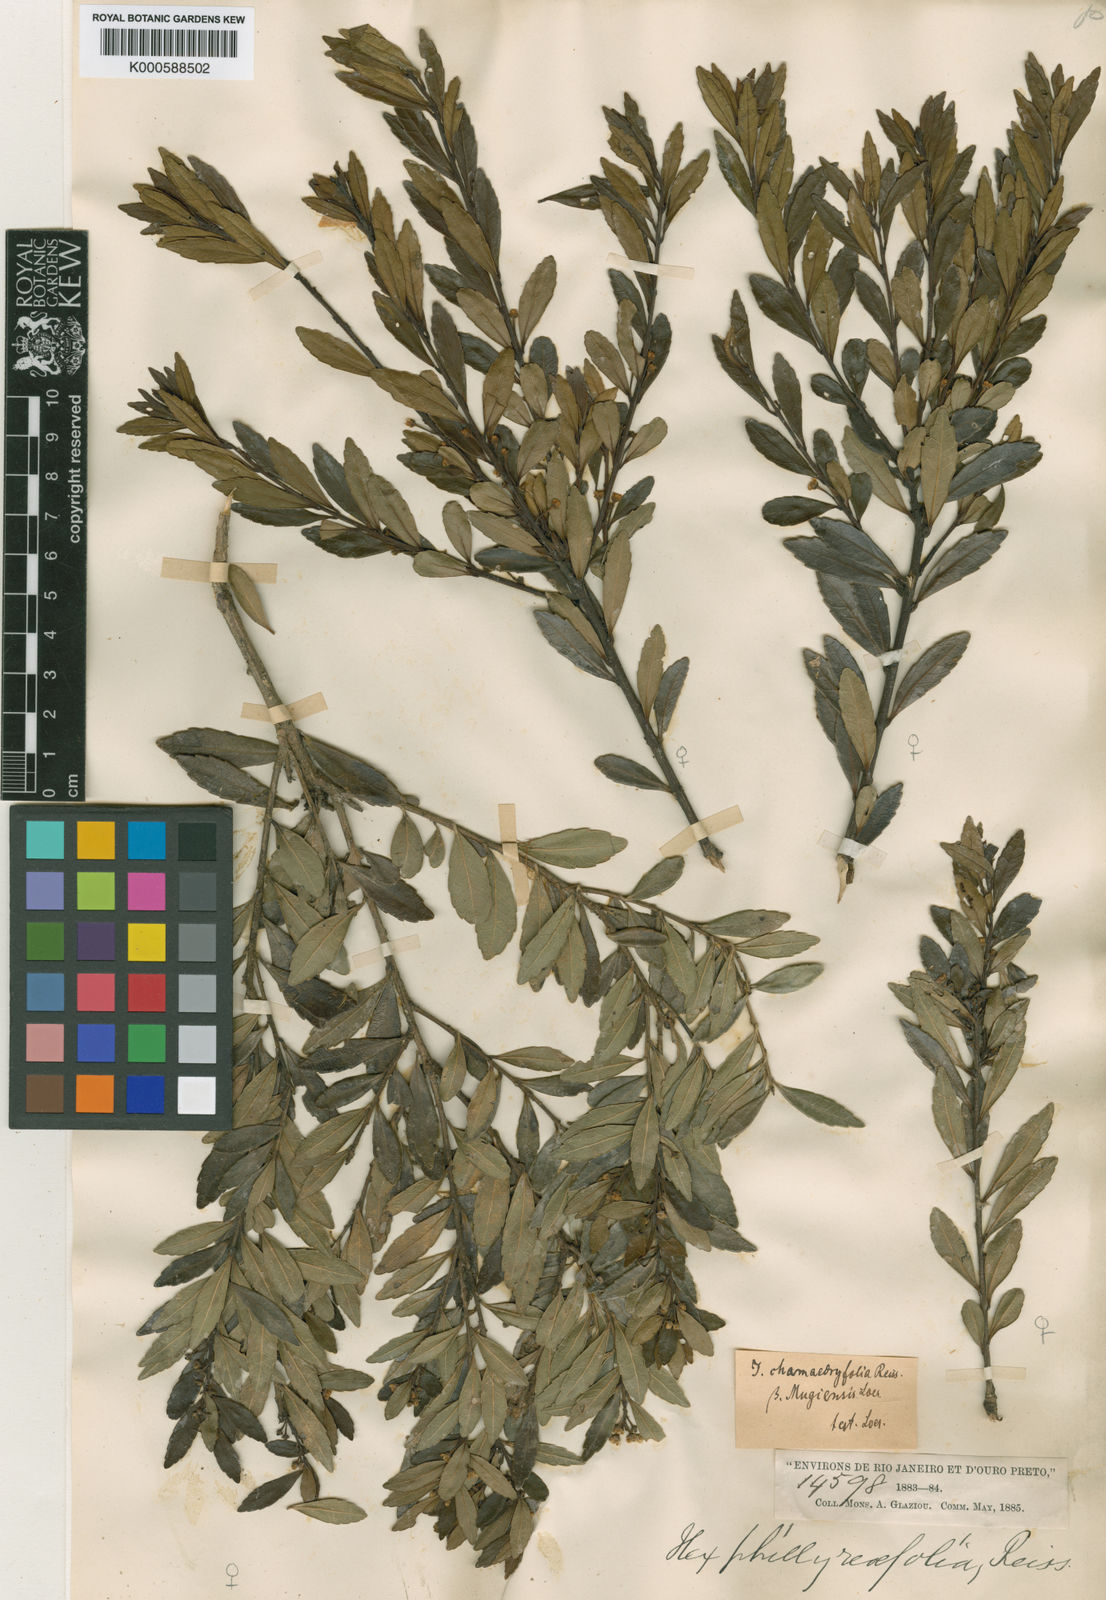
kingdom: Plantae
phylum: Tracheophyta
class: Magnoliopsida
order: Aquifoliales
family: Aquifoliaceae
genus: Ilex
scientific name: Ilex chamaedryfolia
